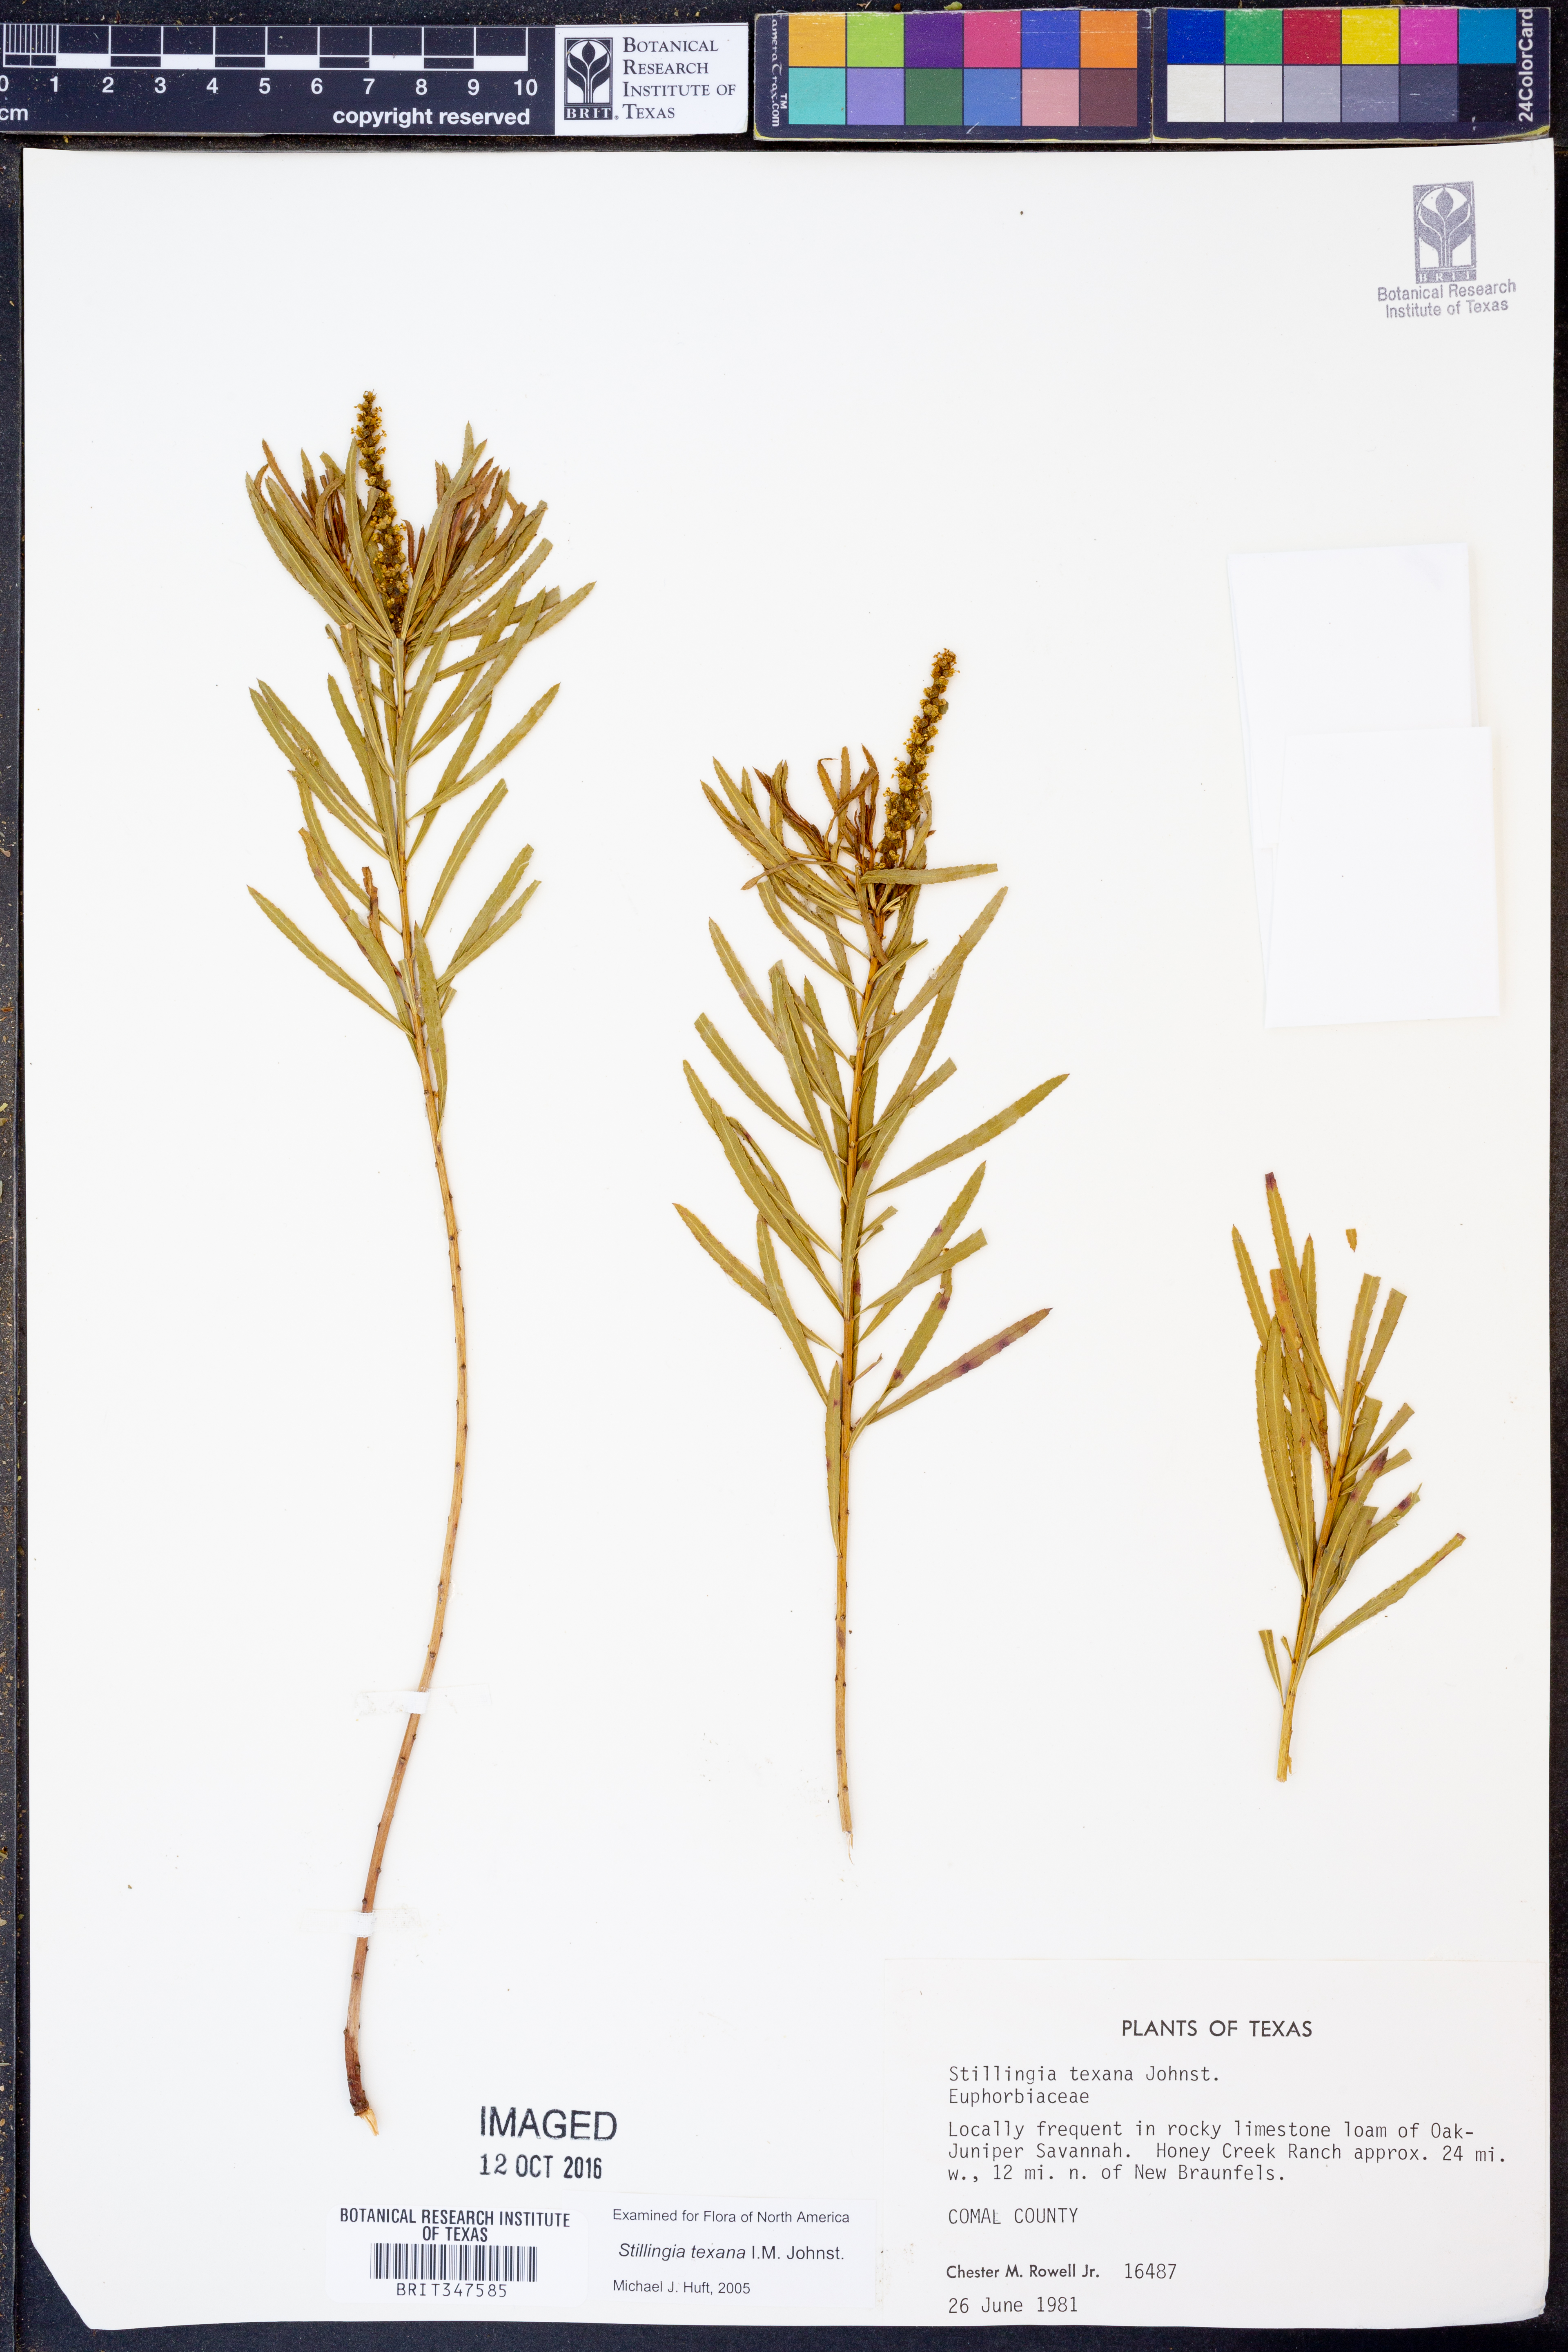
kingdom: Plantae
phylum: Tracheophyta
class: Magnoliopsida
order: Malpighiales
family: Euphorbiaceae
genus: Stillingia
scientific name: Stillingia texana
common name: Texas stillingia
